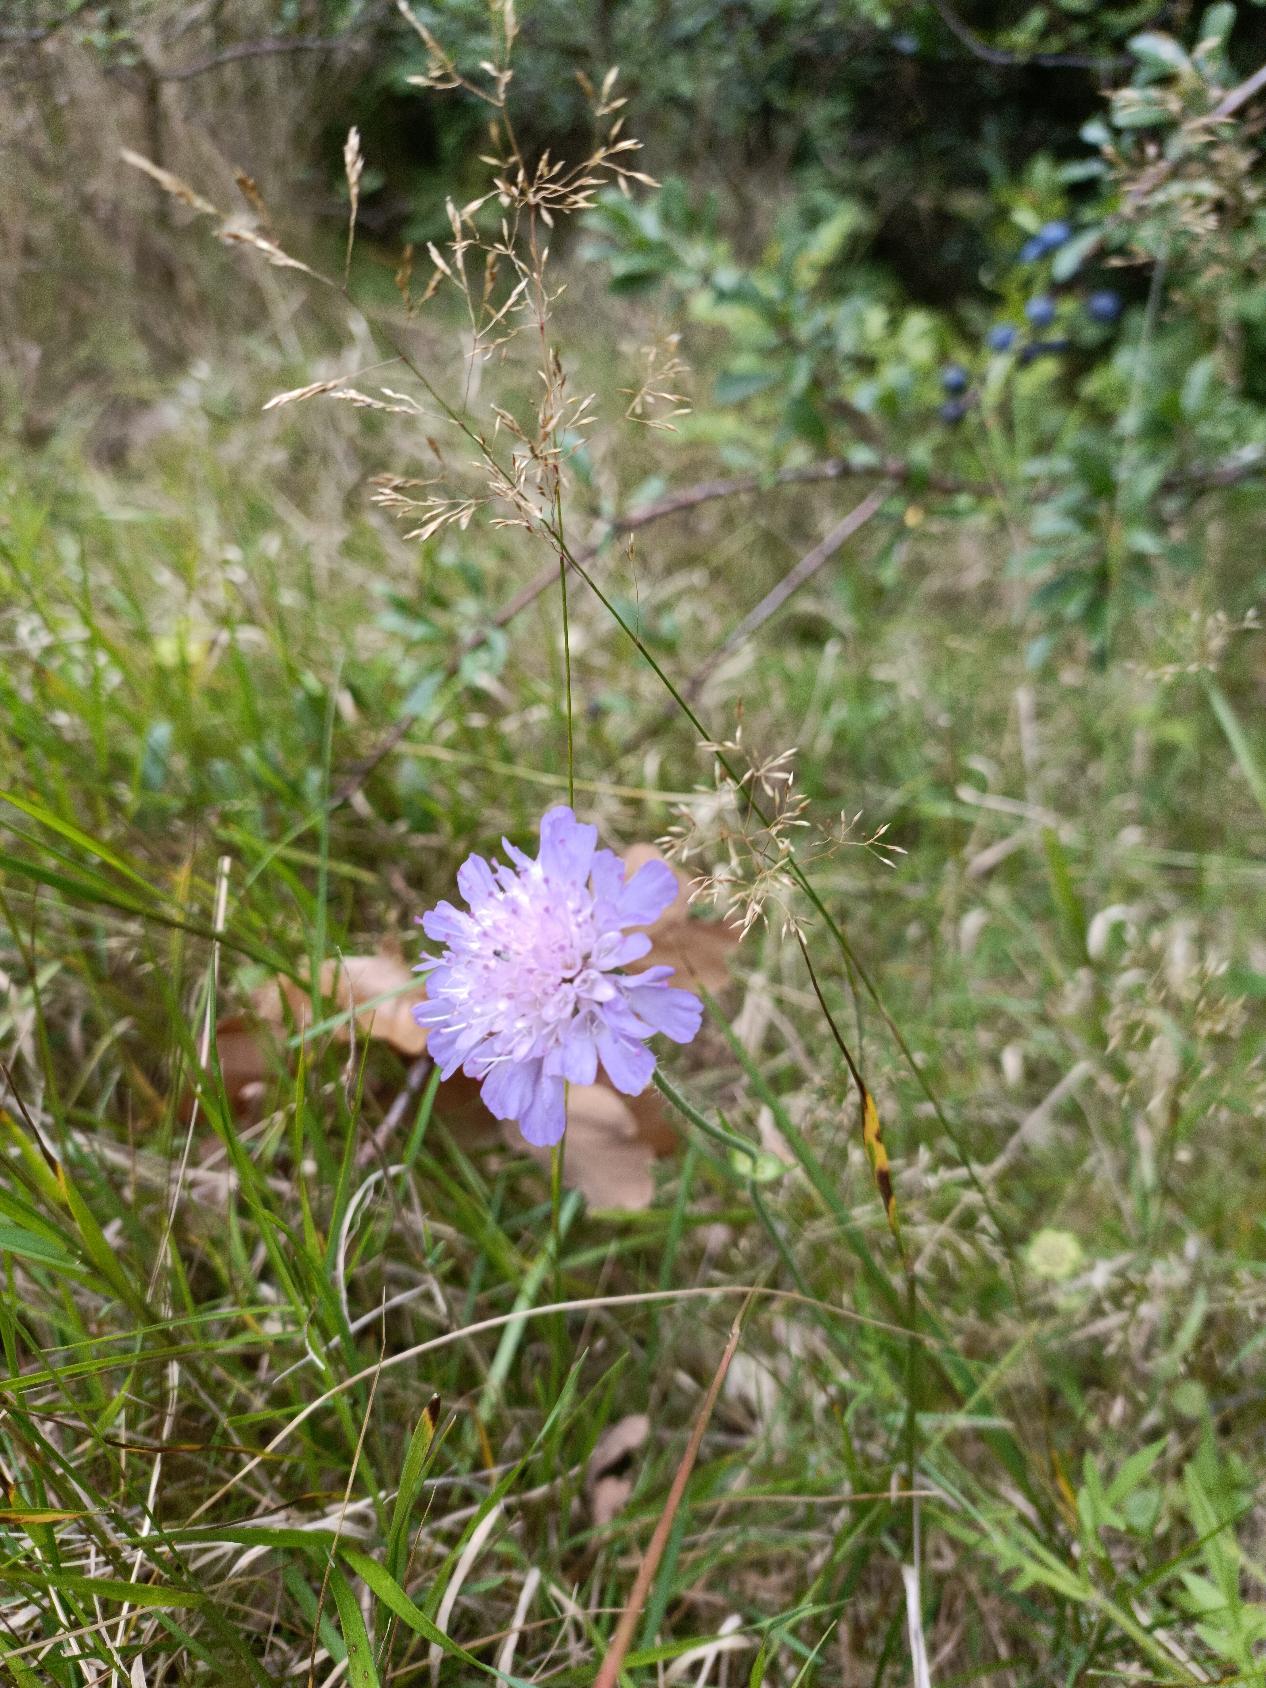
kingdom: Plantae
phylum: Tracheophyta
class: Magnoliopsida
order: Dipsacales
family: Caprifoliaceae
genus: Knautia
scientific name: Knautia arvensis
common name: Blåhat
